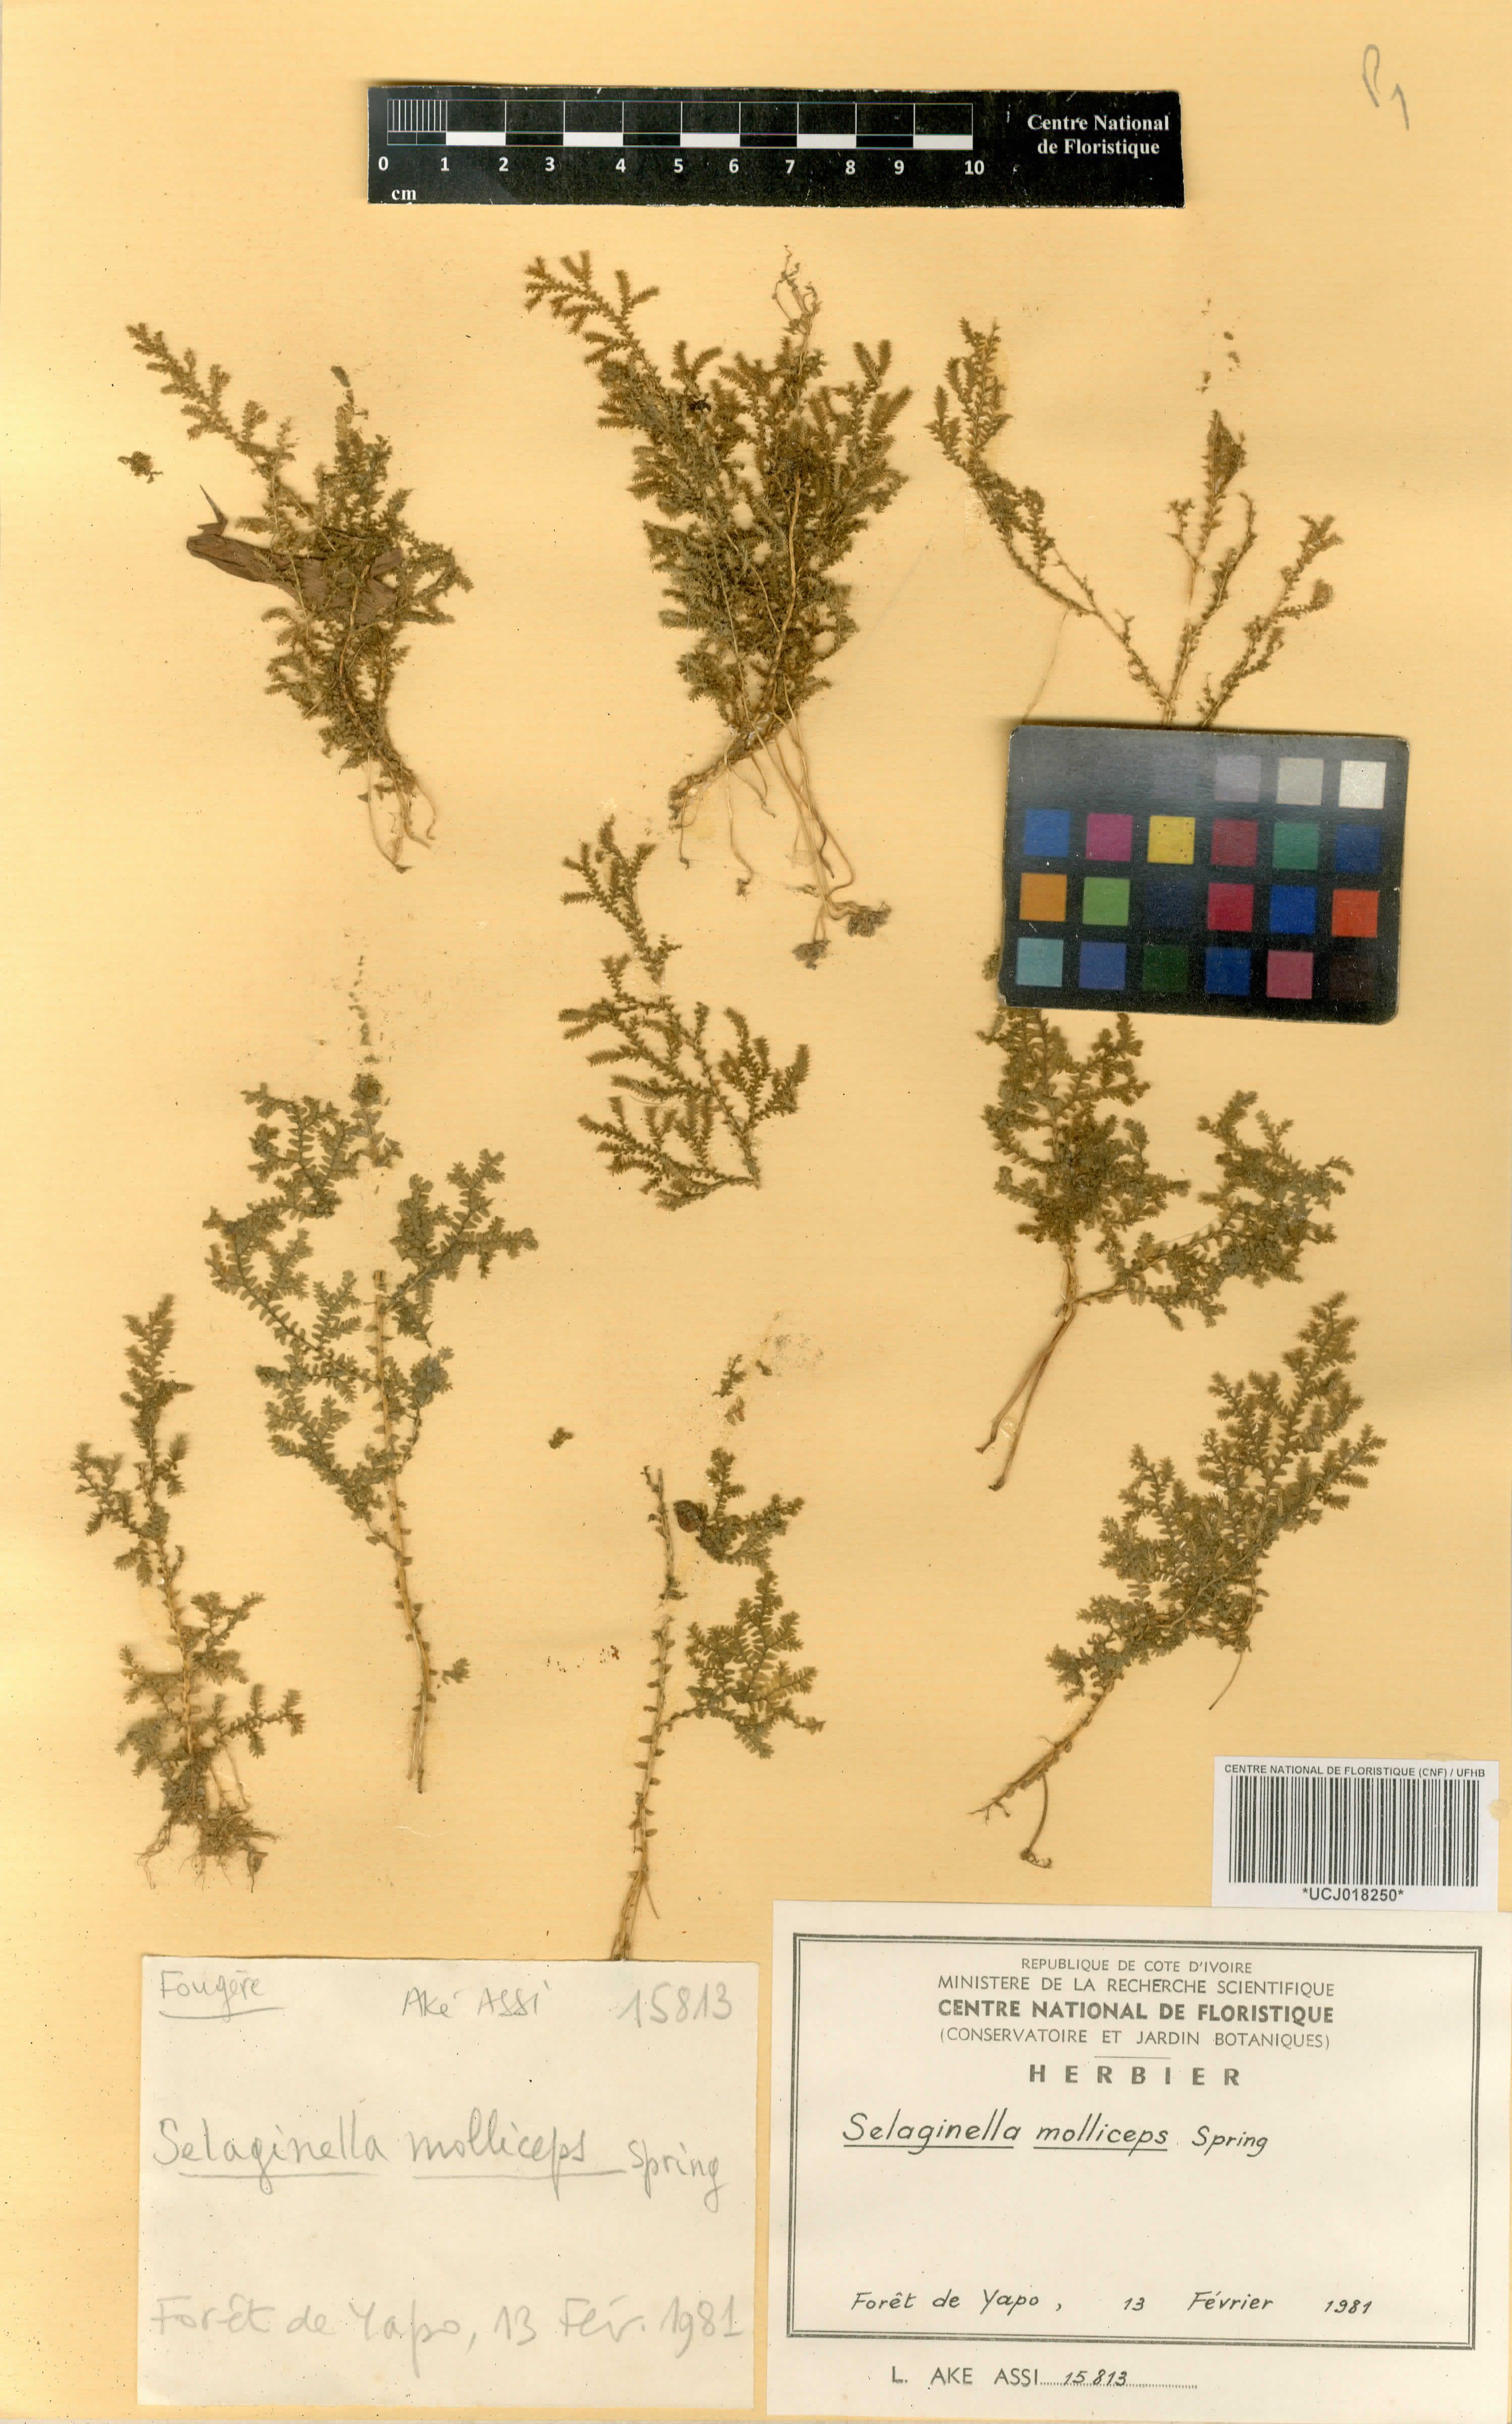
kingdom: Plantae
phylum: Tracheophyta
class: Lycopodiopsida
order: Selaginellales
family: Selaginellaceae
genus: Selaginella
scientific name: Selaginella molliceps
